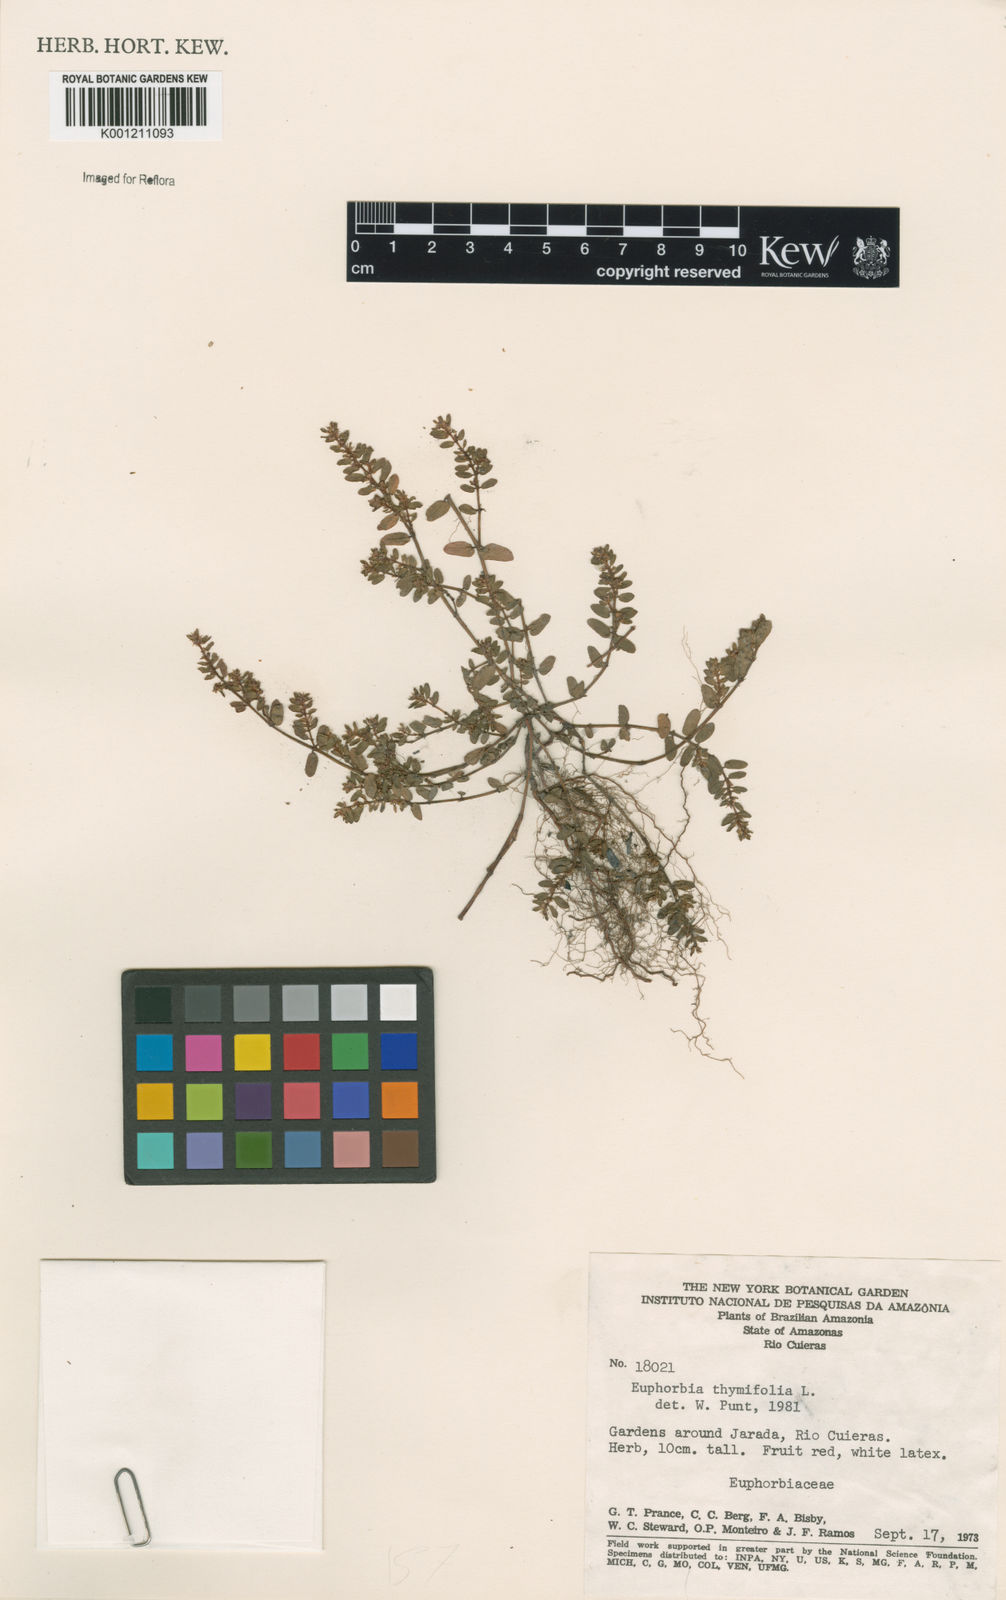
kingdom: Plantae
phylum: Tracheophyta
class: Magnoliopsida
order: Malpighiales
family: Euphorbiaceae
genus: Euphorbia
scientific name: Euphorbia thymifolia
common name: Gulf sandmat
